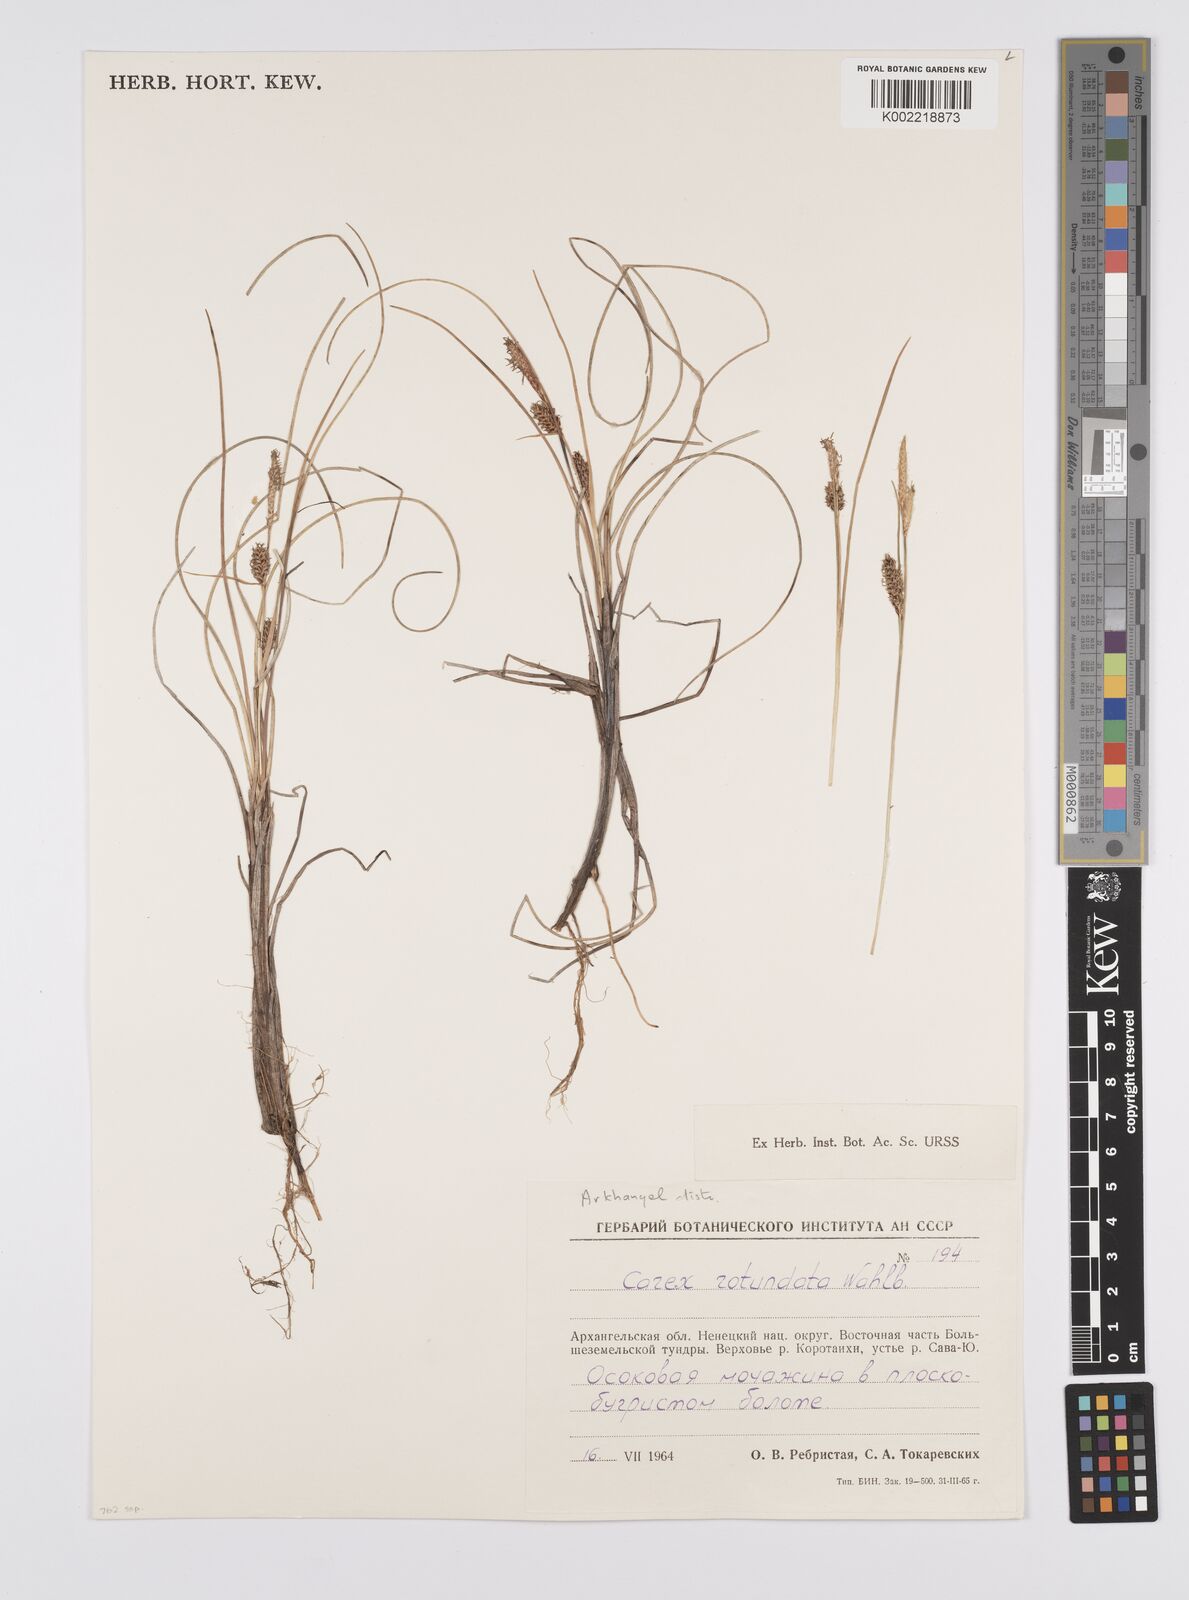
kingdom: Plantae
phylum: Tracheophyta
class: Liliopsida
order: Poales
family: Cyperaceae
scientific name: Cyperaceae
